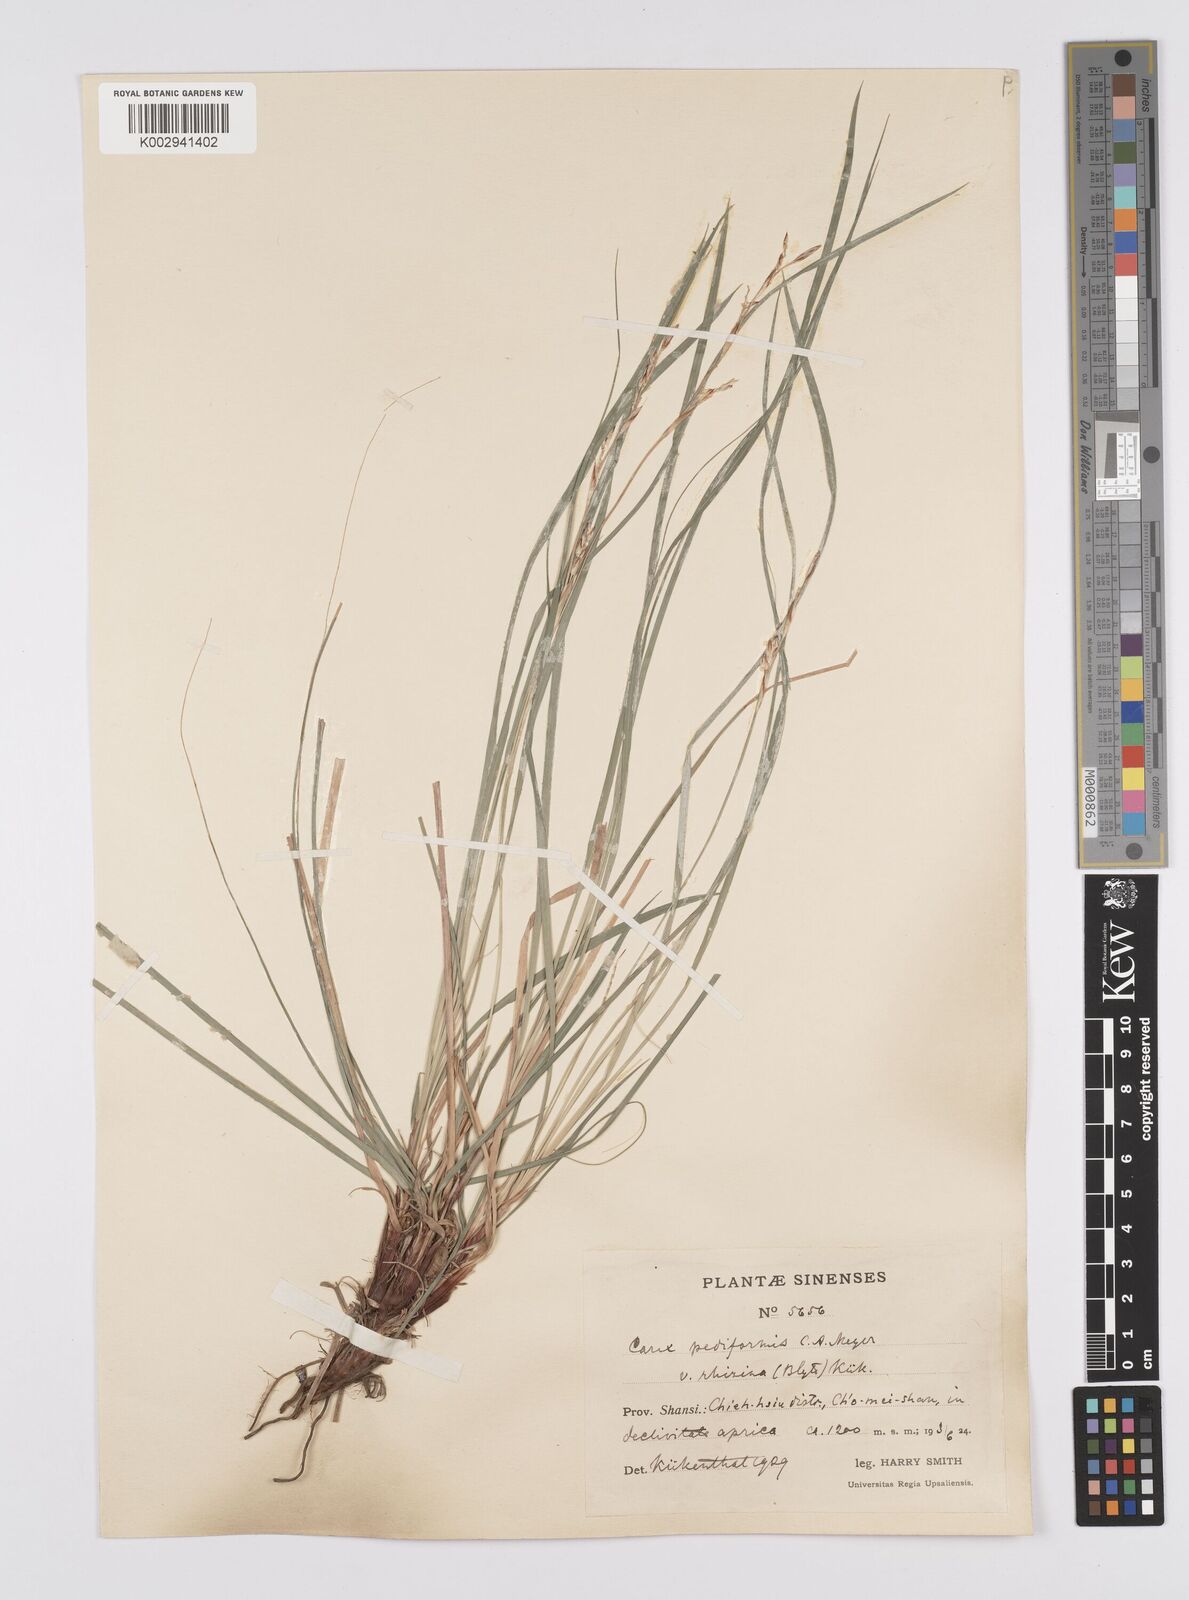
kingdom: Plantae
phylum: Tracheophyta
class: Liliopsida
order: Poales
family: Cyperaceae
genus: Carex
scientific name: Carex pediformis
